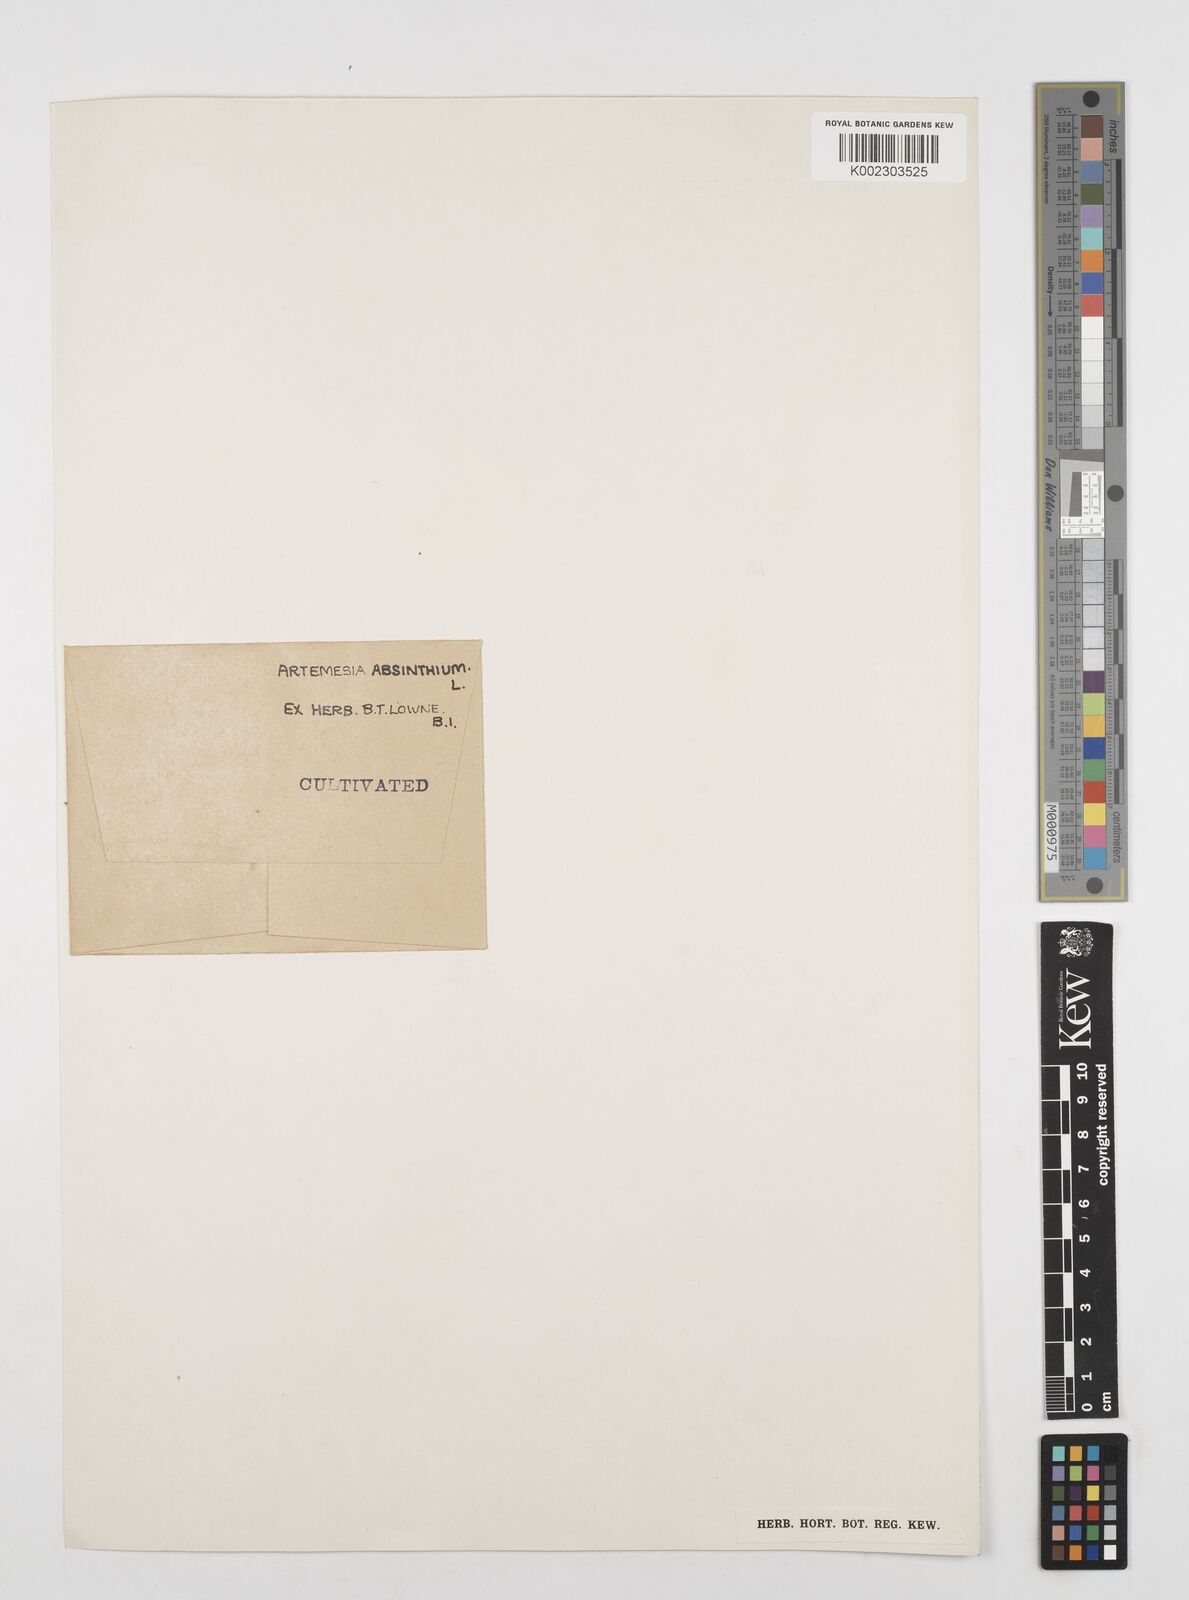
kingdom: Plantae
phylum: Tracheophyta
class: Magnoliopsida
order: Asterales
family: Asteraceae
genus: Artemisia
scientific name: Artemisia absinthium
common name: Wormwood
